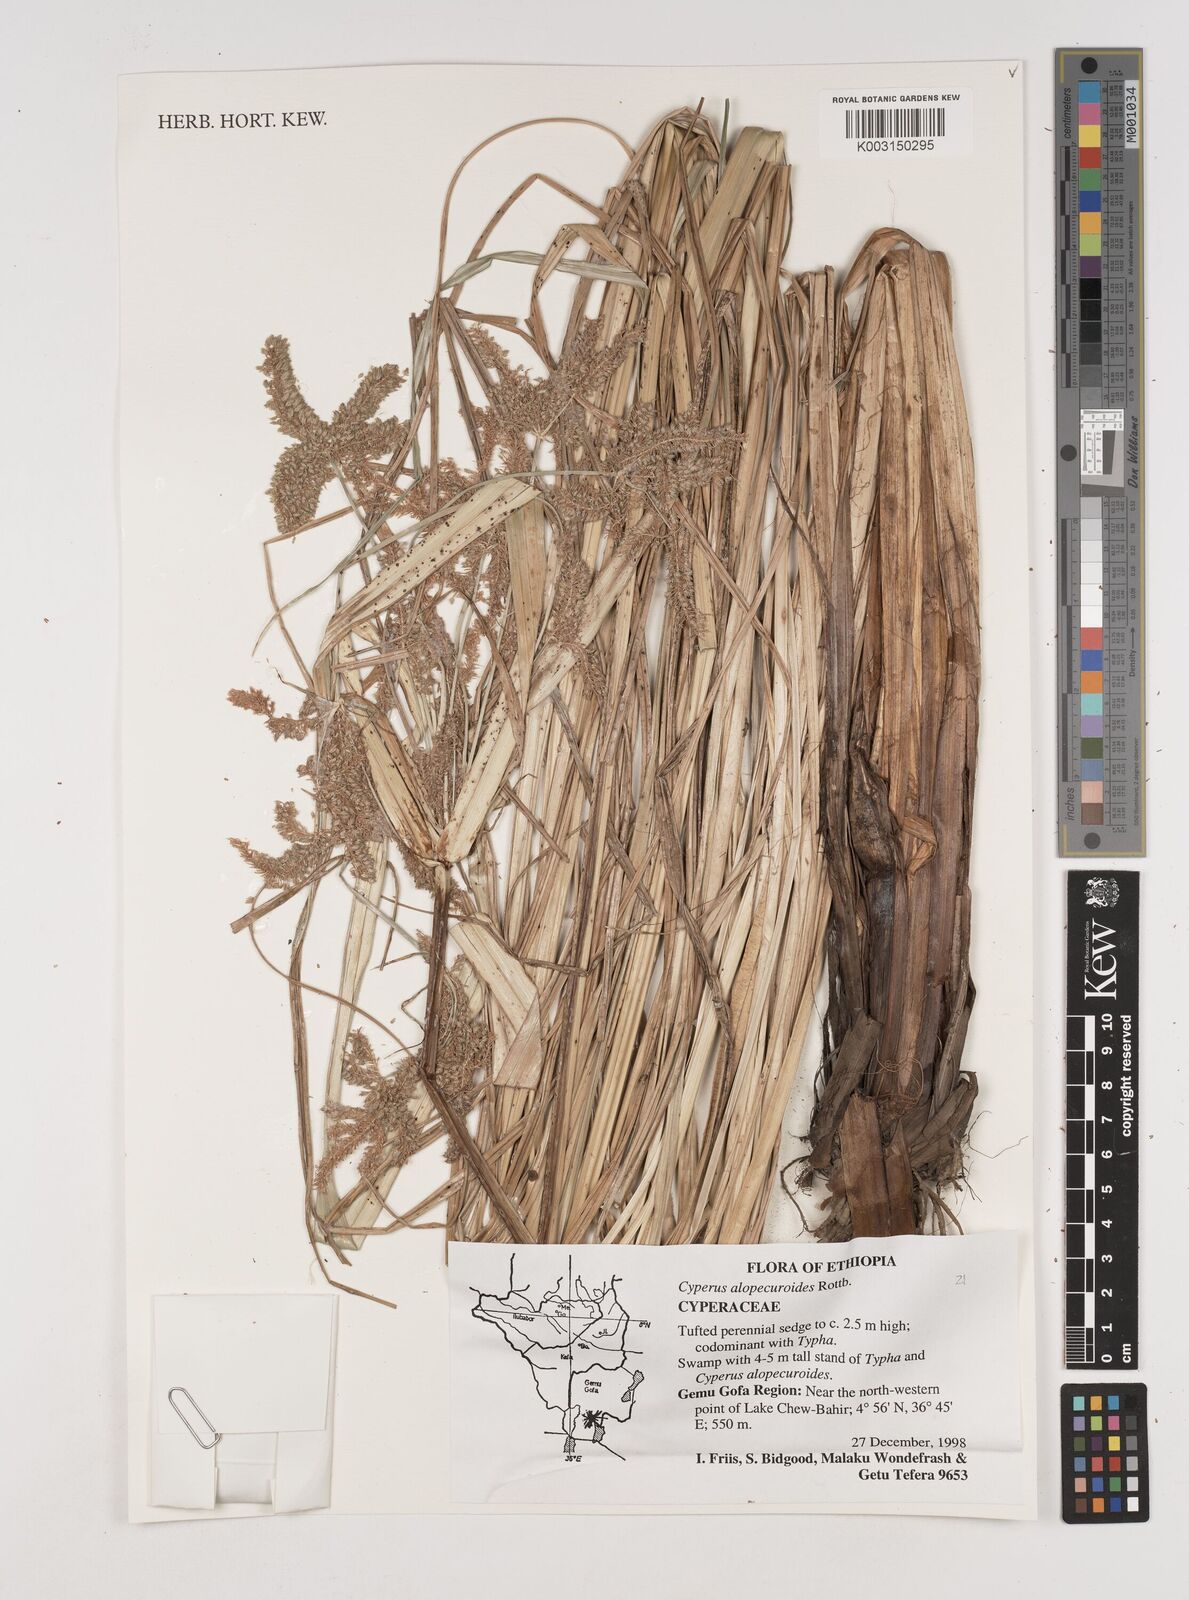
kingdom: Plantae
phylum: Tracheophyta
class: Liliopsida
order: Poales
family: Cyperaceae
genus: Cyperus
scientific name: Cyperus alopecuroides
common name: Foxtail flatsedge
